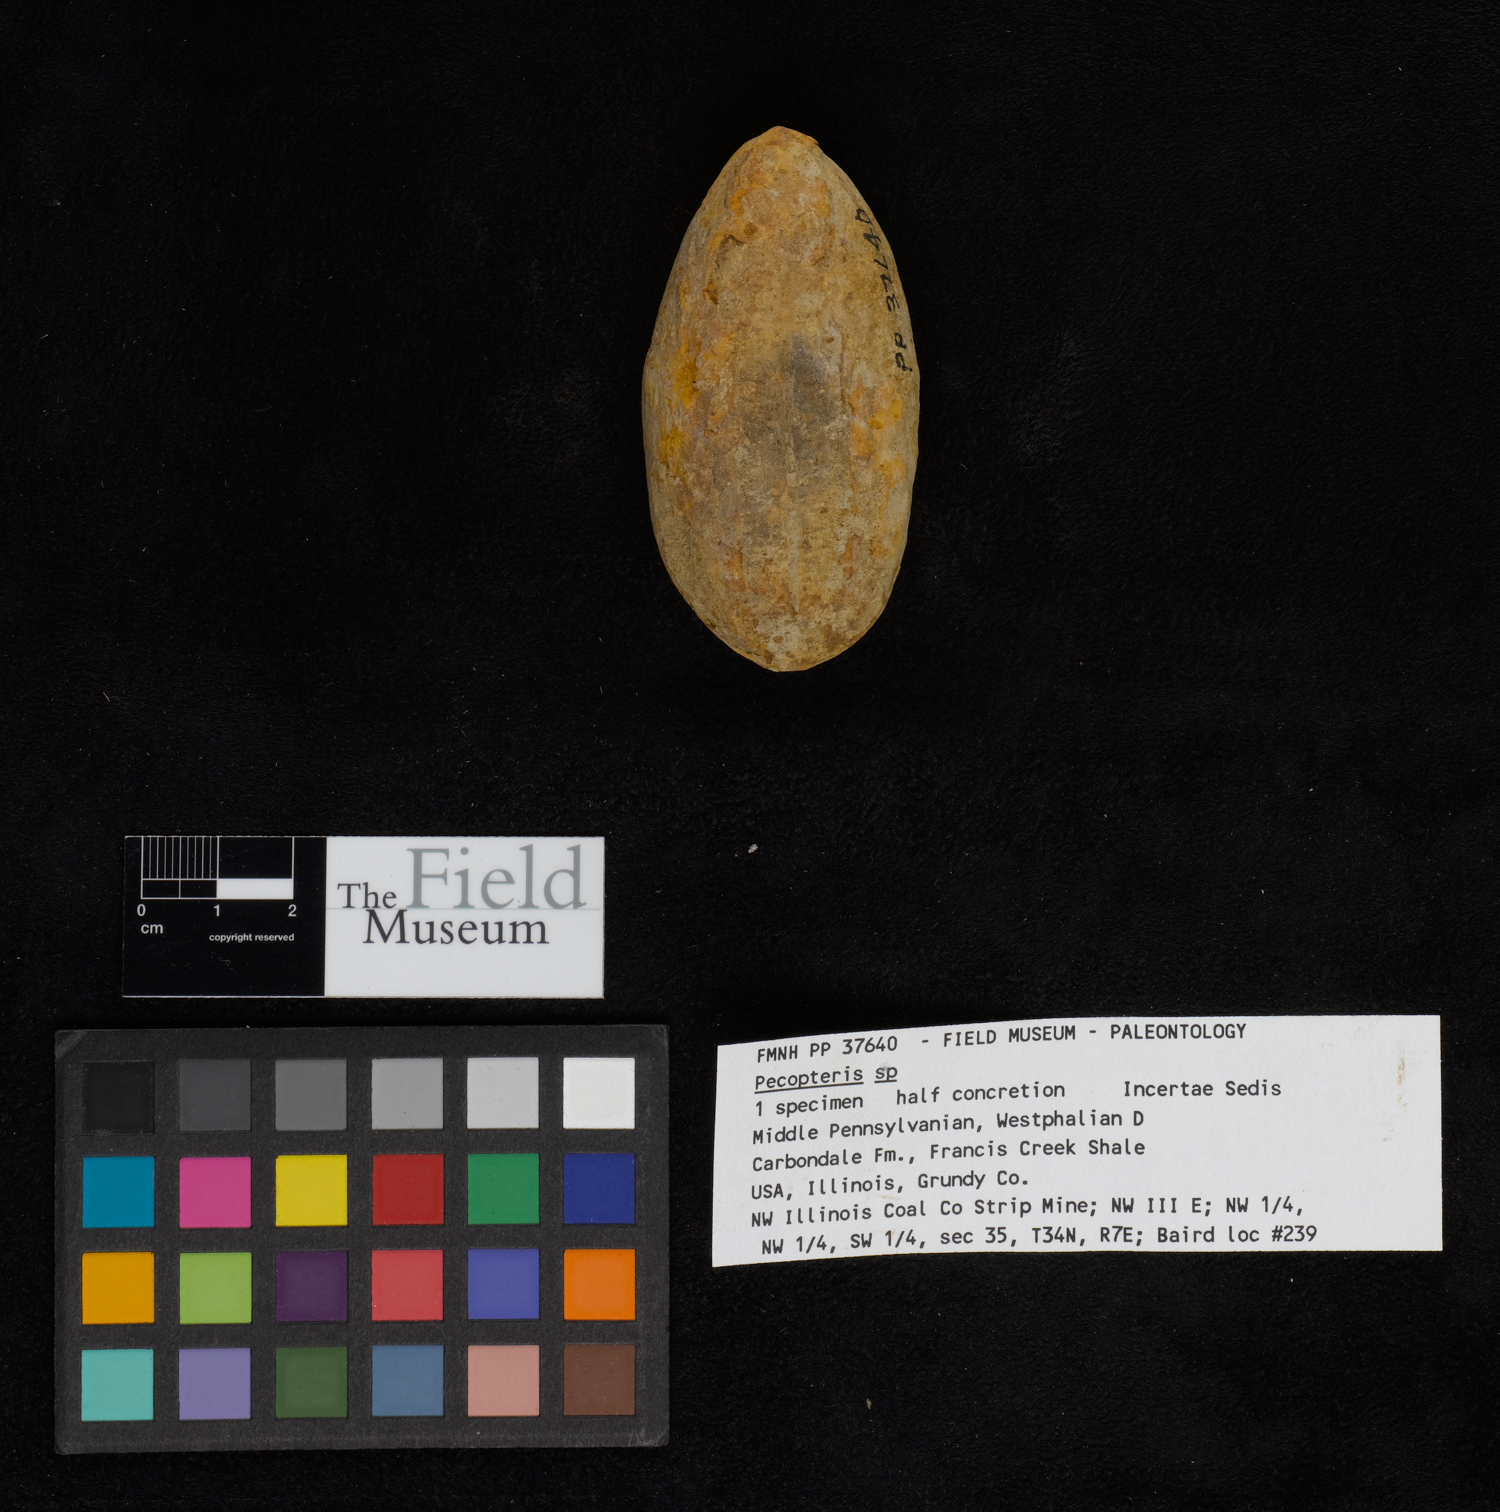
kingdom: Plantae
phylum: Tracheophyta
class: Polypodiopsida
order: Marattiales
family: Asterothecaceae
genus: Pecopteris
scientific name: Pecopteris
